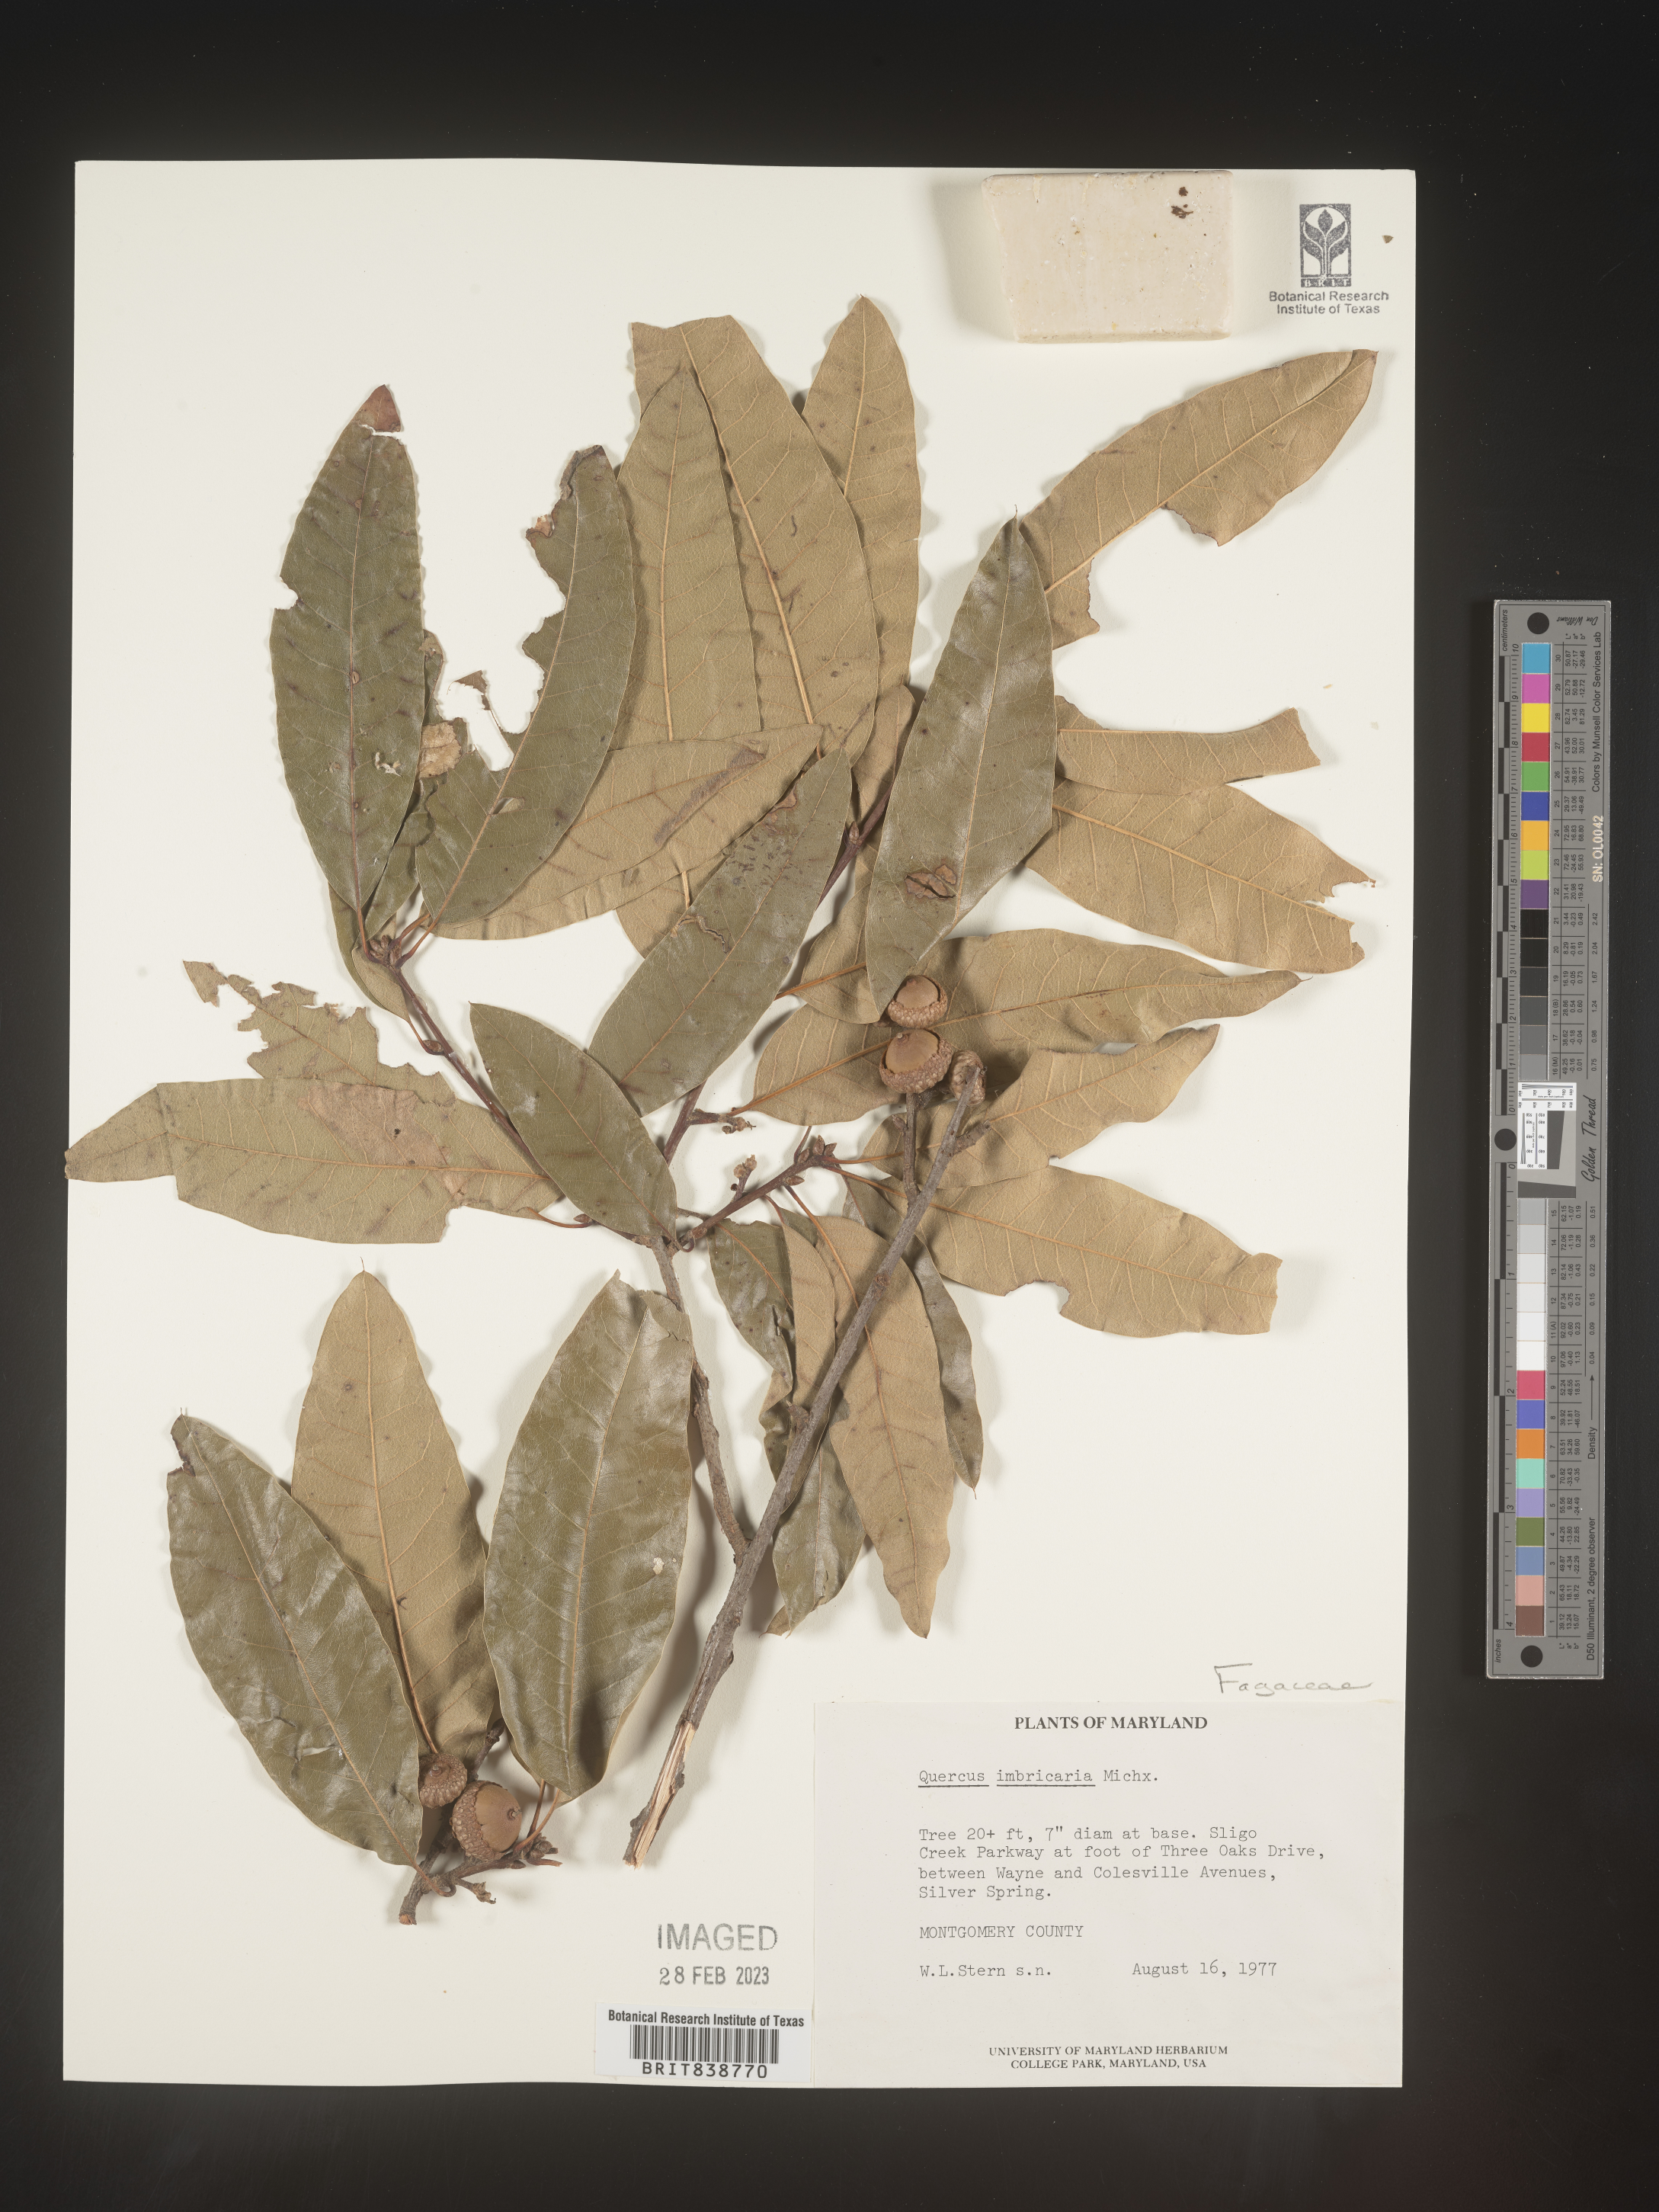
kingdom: Plantae
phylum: Tracheophyta
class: Magnoliopsida
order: Fagales
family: Fagaceae
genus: Quercus
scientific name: Quercus imbricaria
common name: Shingle oak
